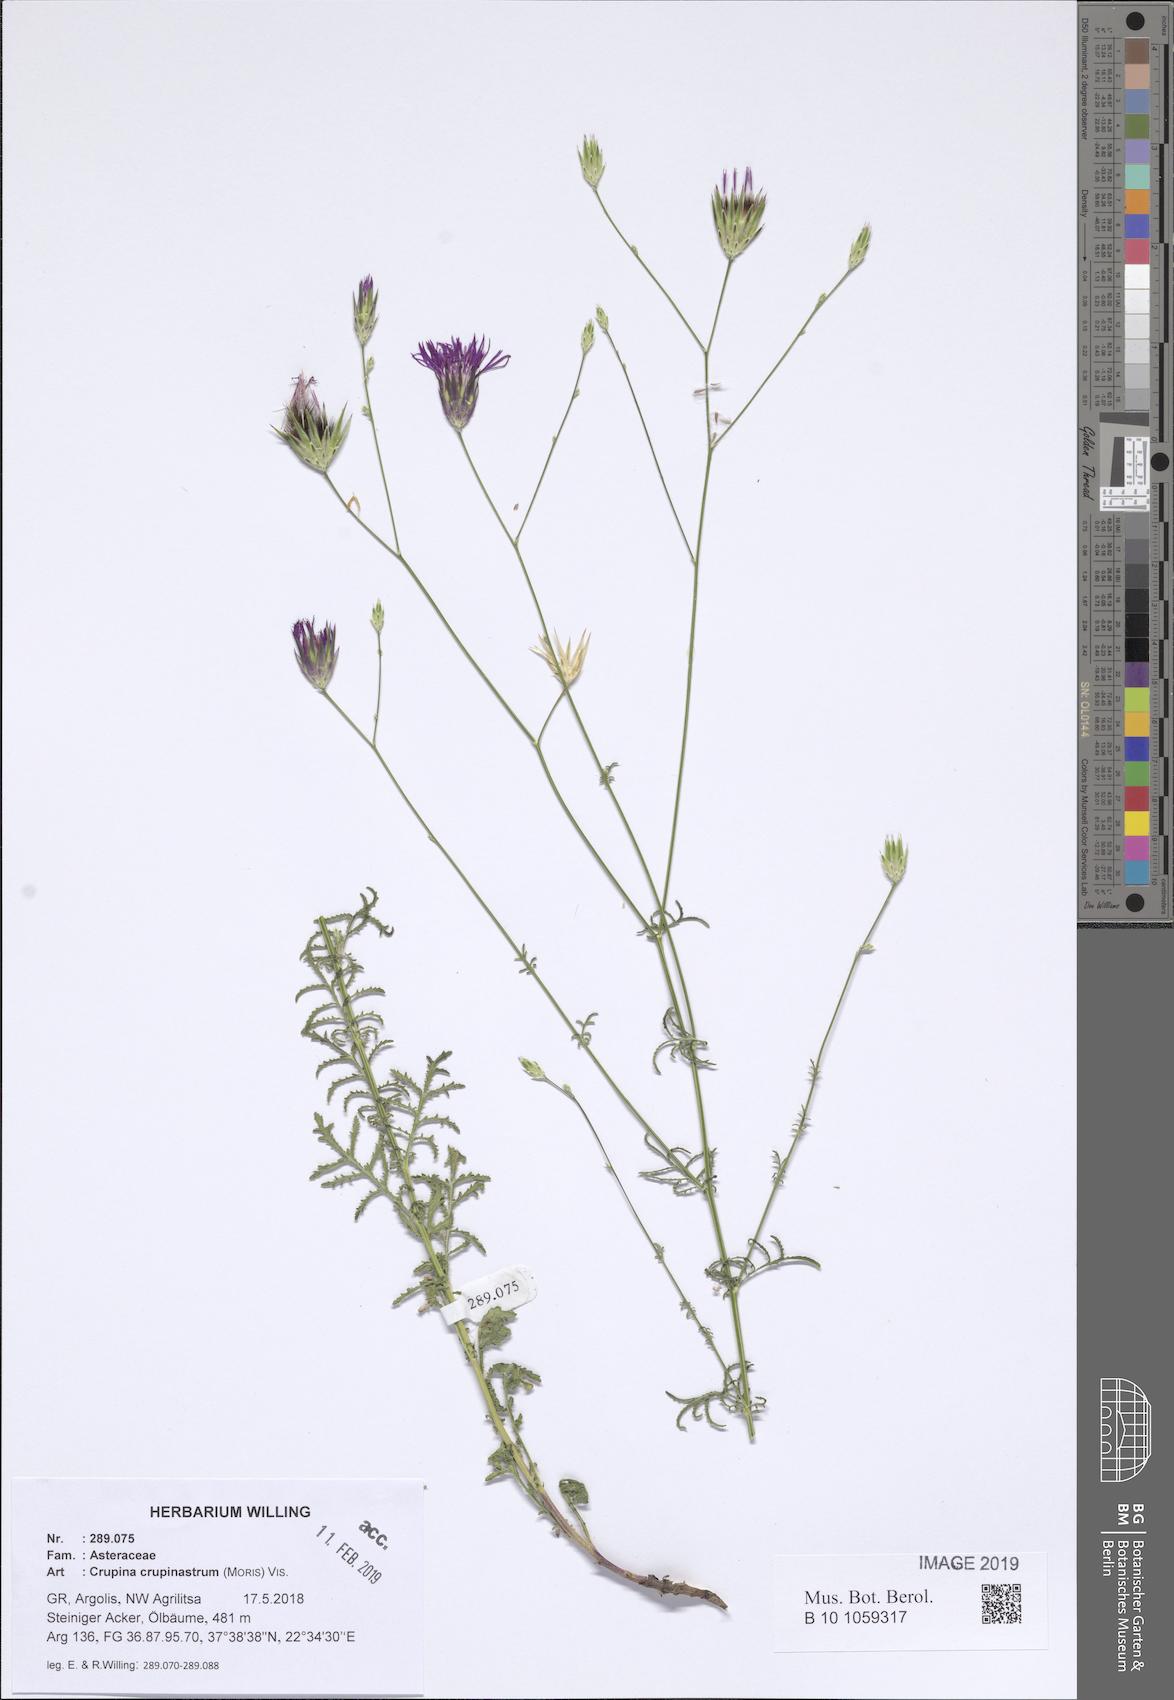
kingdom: Plantae
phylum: Tracheophyta
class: Magnoliopsida
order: Asterales
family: Asteraceae
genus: Crupina
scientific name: Crupina crupinastrum
